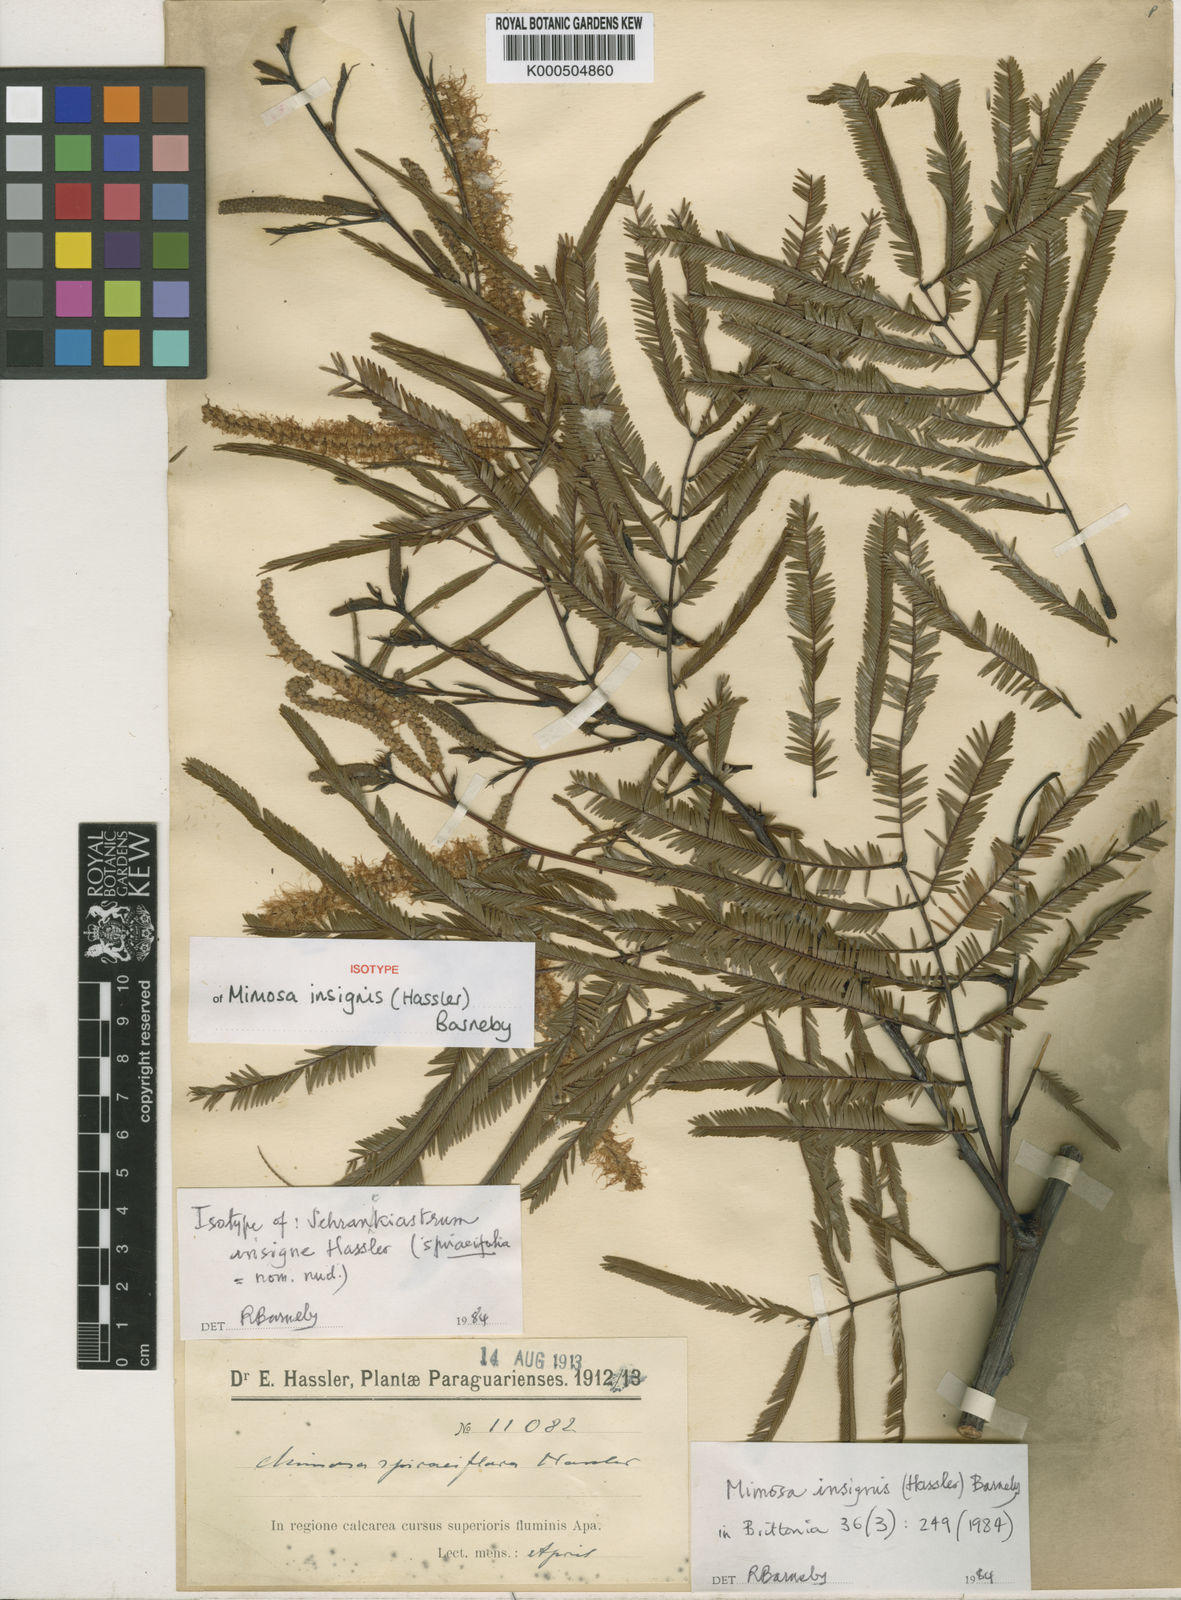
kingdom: Plantae
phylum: Tracheophyta
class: Magnoliopsida
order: Fabales
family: Fabaceae
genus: Mimosa
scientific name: Mimosa insignis
